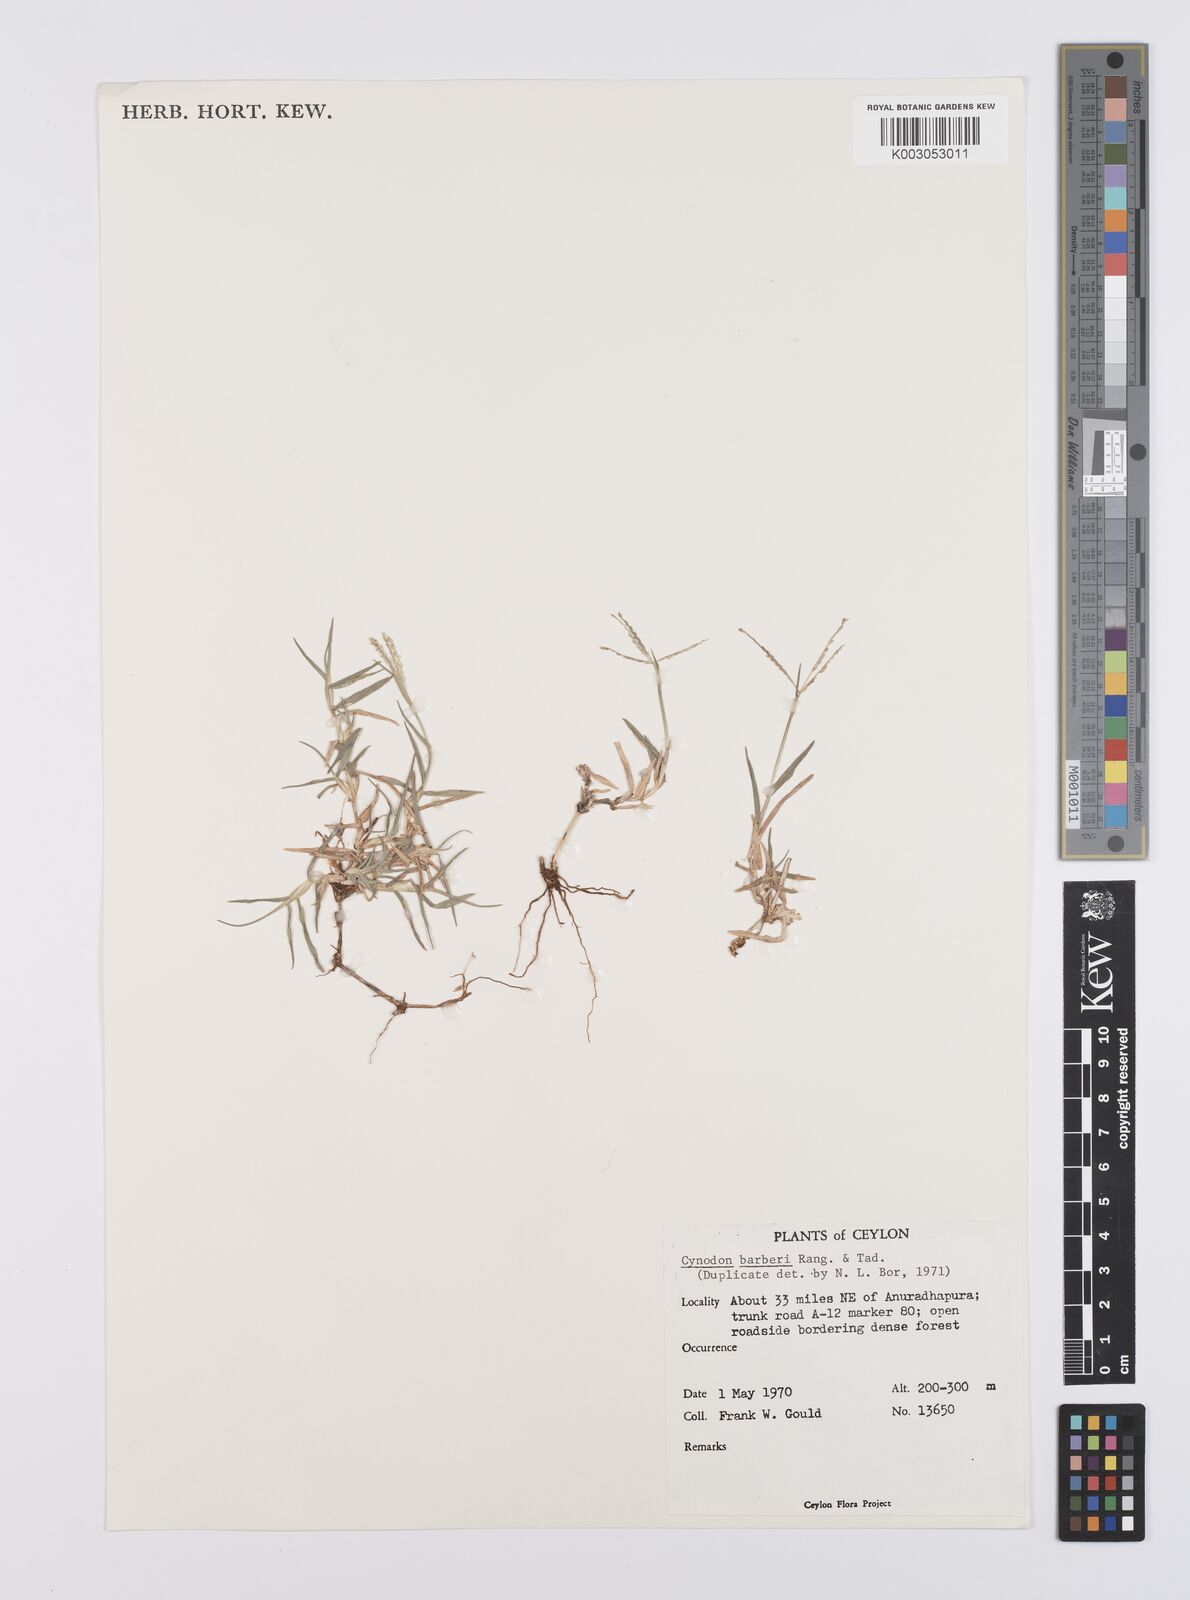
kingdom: Plantae
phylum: Tracheophyta
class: Liliopsida
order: Poales
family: Poaceae
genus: Cynodon
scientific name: Cynodon barberi
